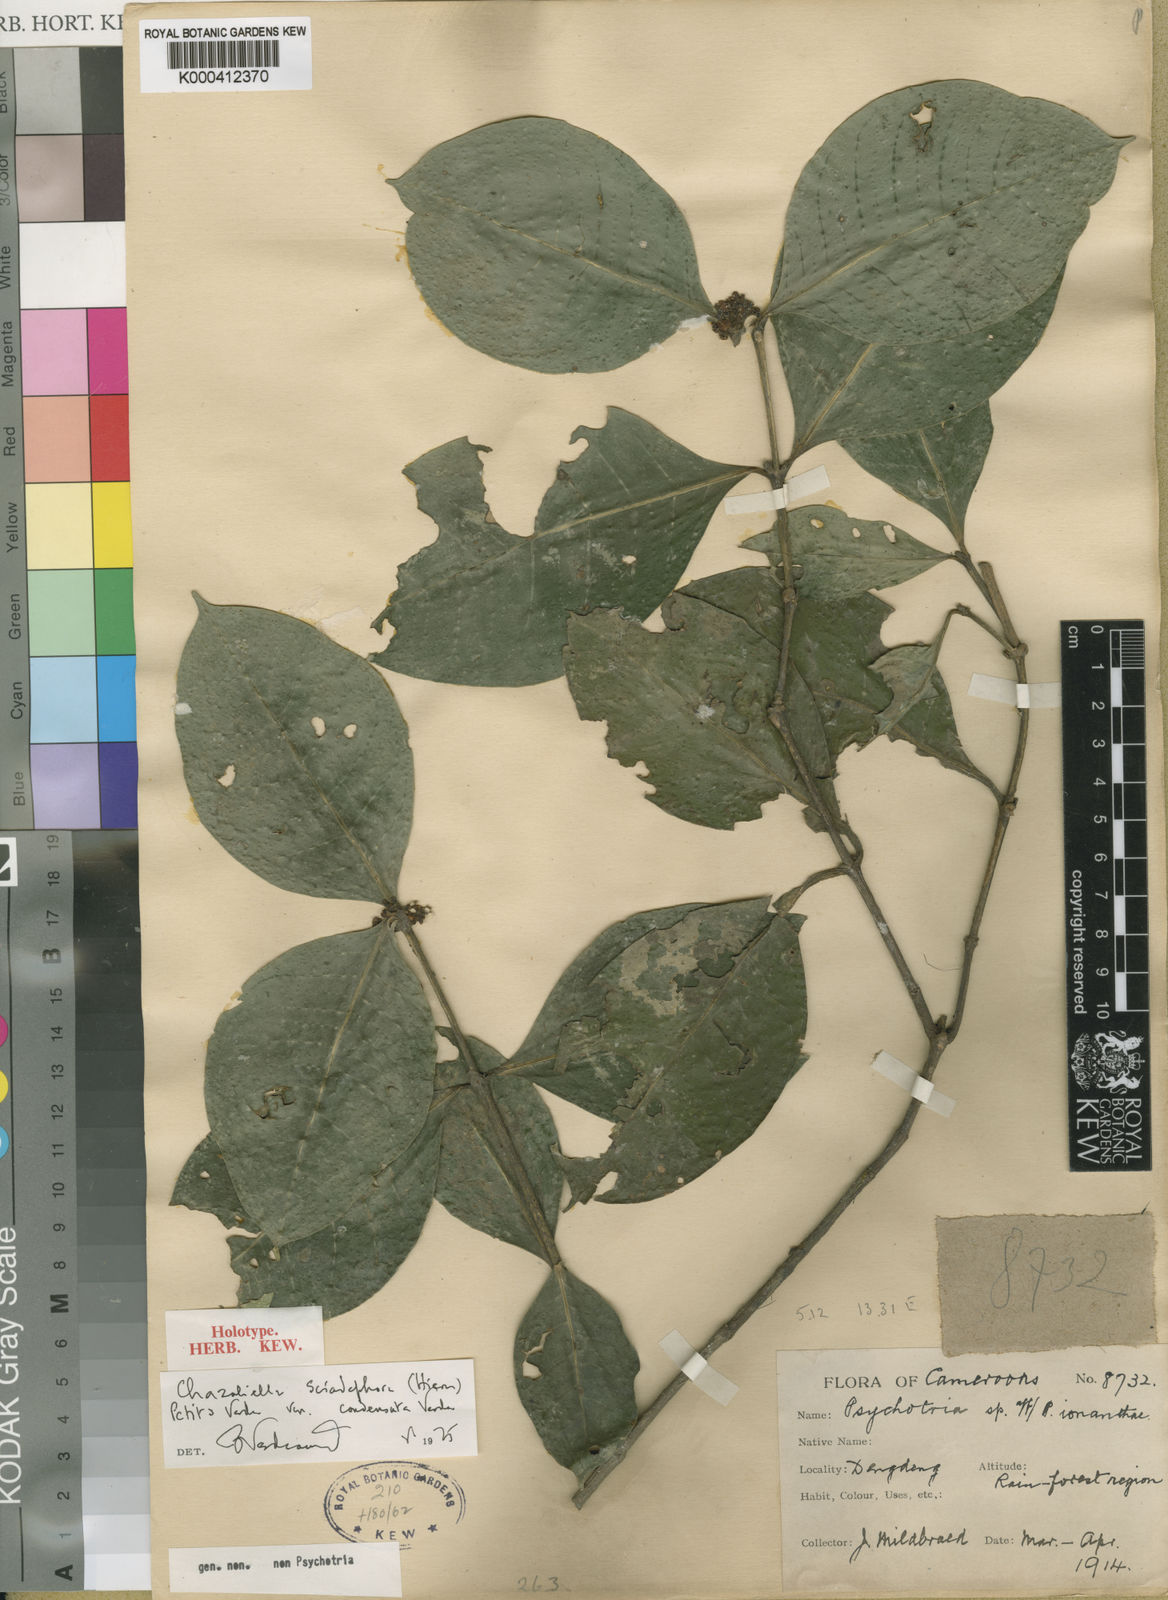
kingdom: Plantae
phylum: Tracheophyta
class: Magnoliopsida
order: Gentianales
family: Rubiaceae
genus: Eumachia
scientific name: Eumachia macrocarpa
